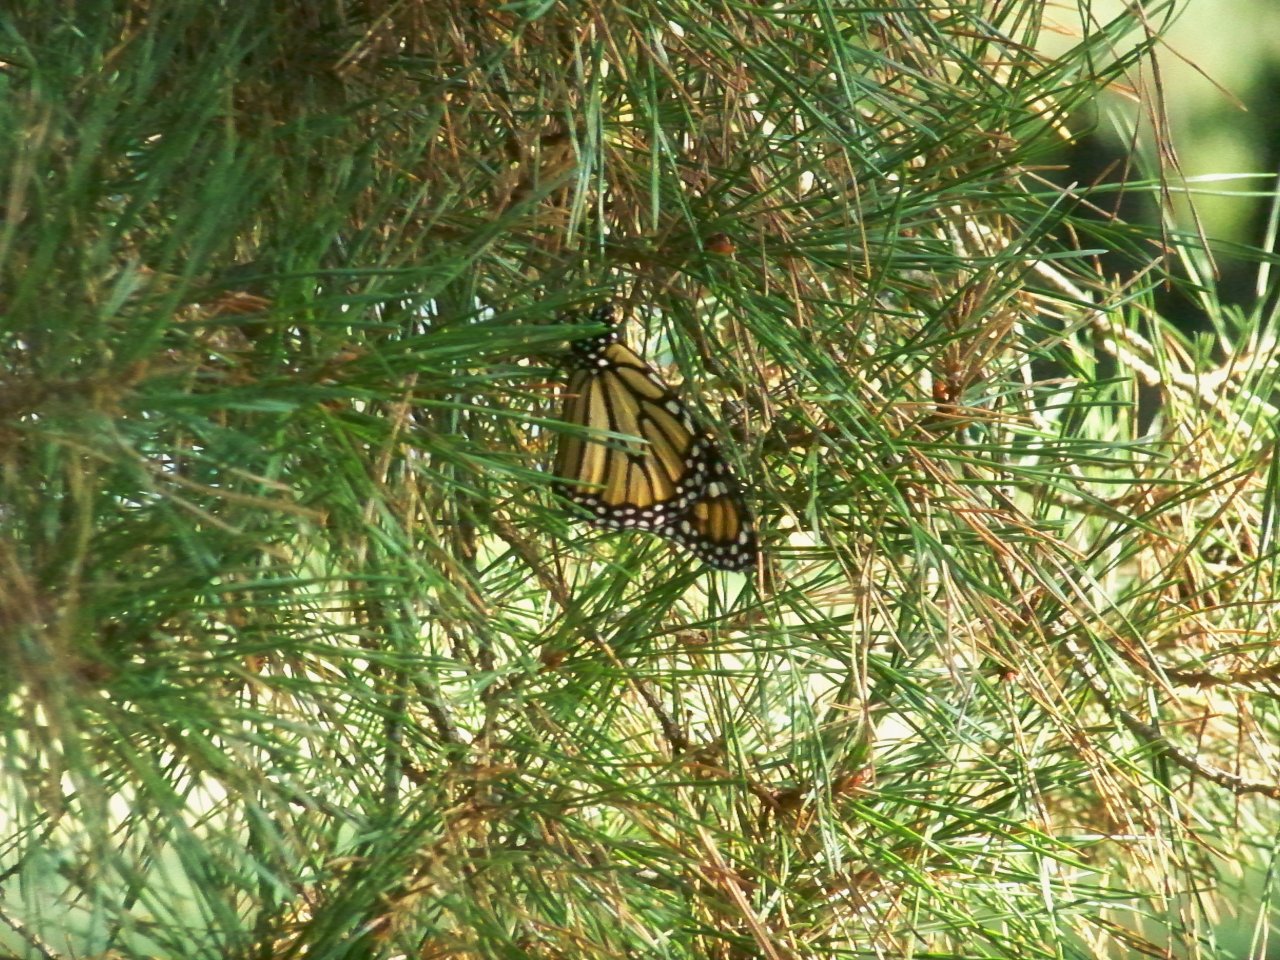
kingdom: Animalia
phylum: Arthropoda
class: Insecta
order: Lepidoptera
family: Nymphalidae
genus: Danaus
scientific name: Danaus plexippus
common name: Monarch
